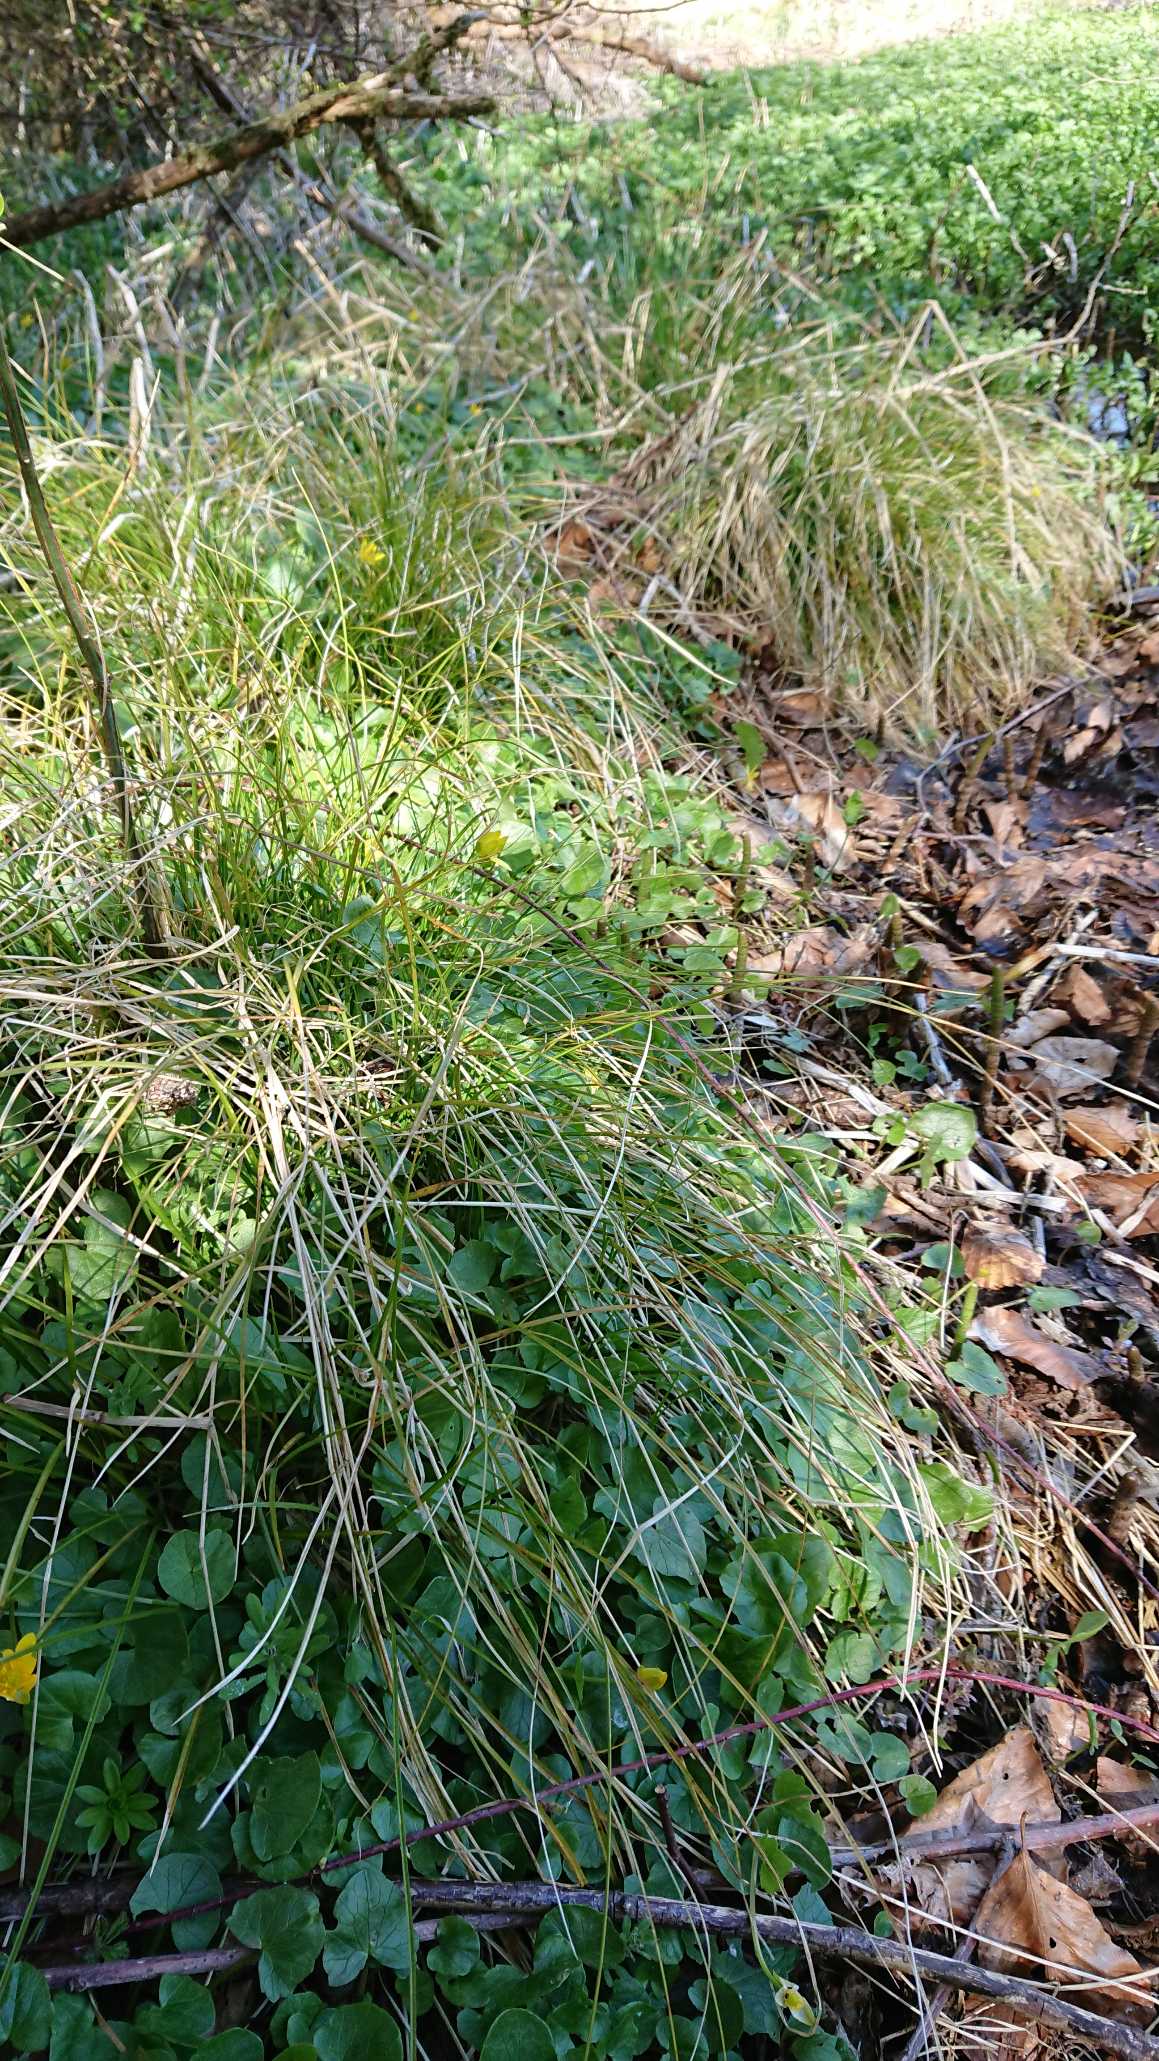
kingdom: Plantae
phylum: Tracheophyta
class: Liliopsida
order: Poales
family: Cyperaceae
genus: Carex
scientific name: Carex remota
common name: Akselblomstret star
